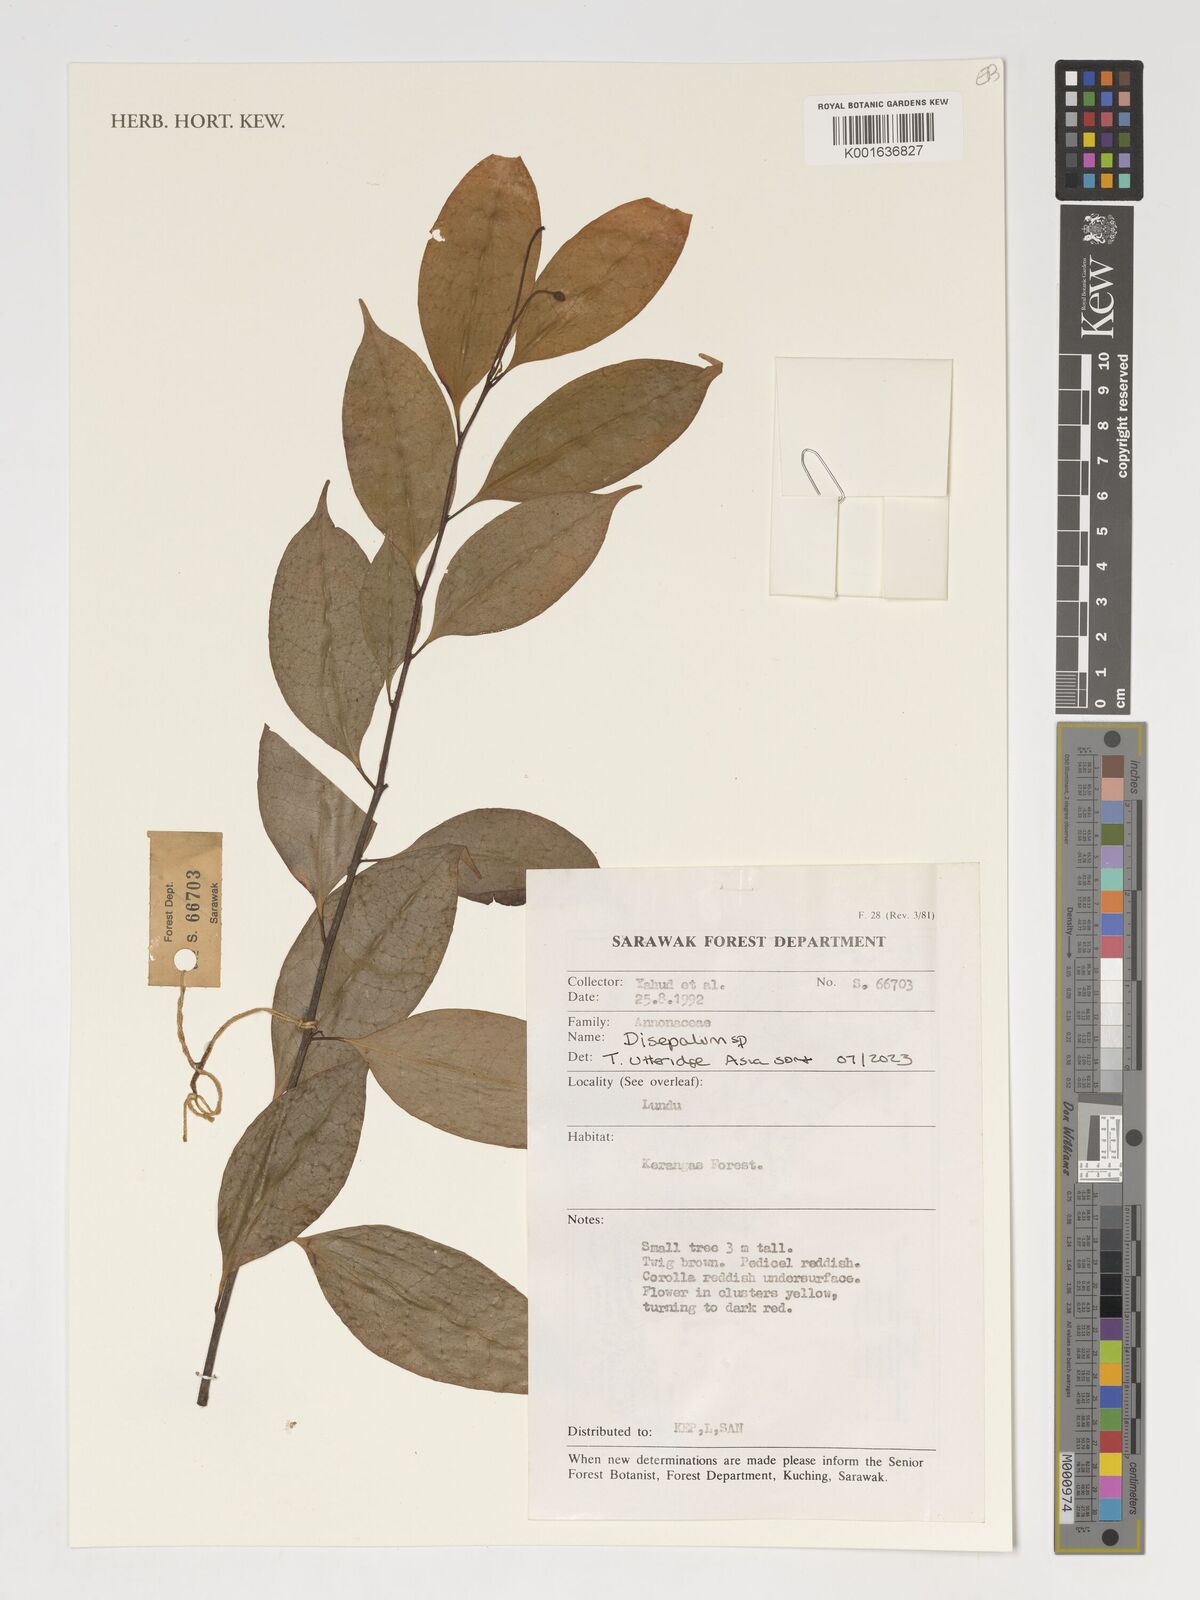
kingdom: Plantae
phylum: Tracheophyta
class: Magnoliopsida
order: Magnoliales
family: Annonaceae
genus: Disepalum
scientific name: Disepalum
